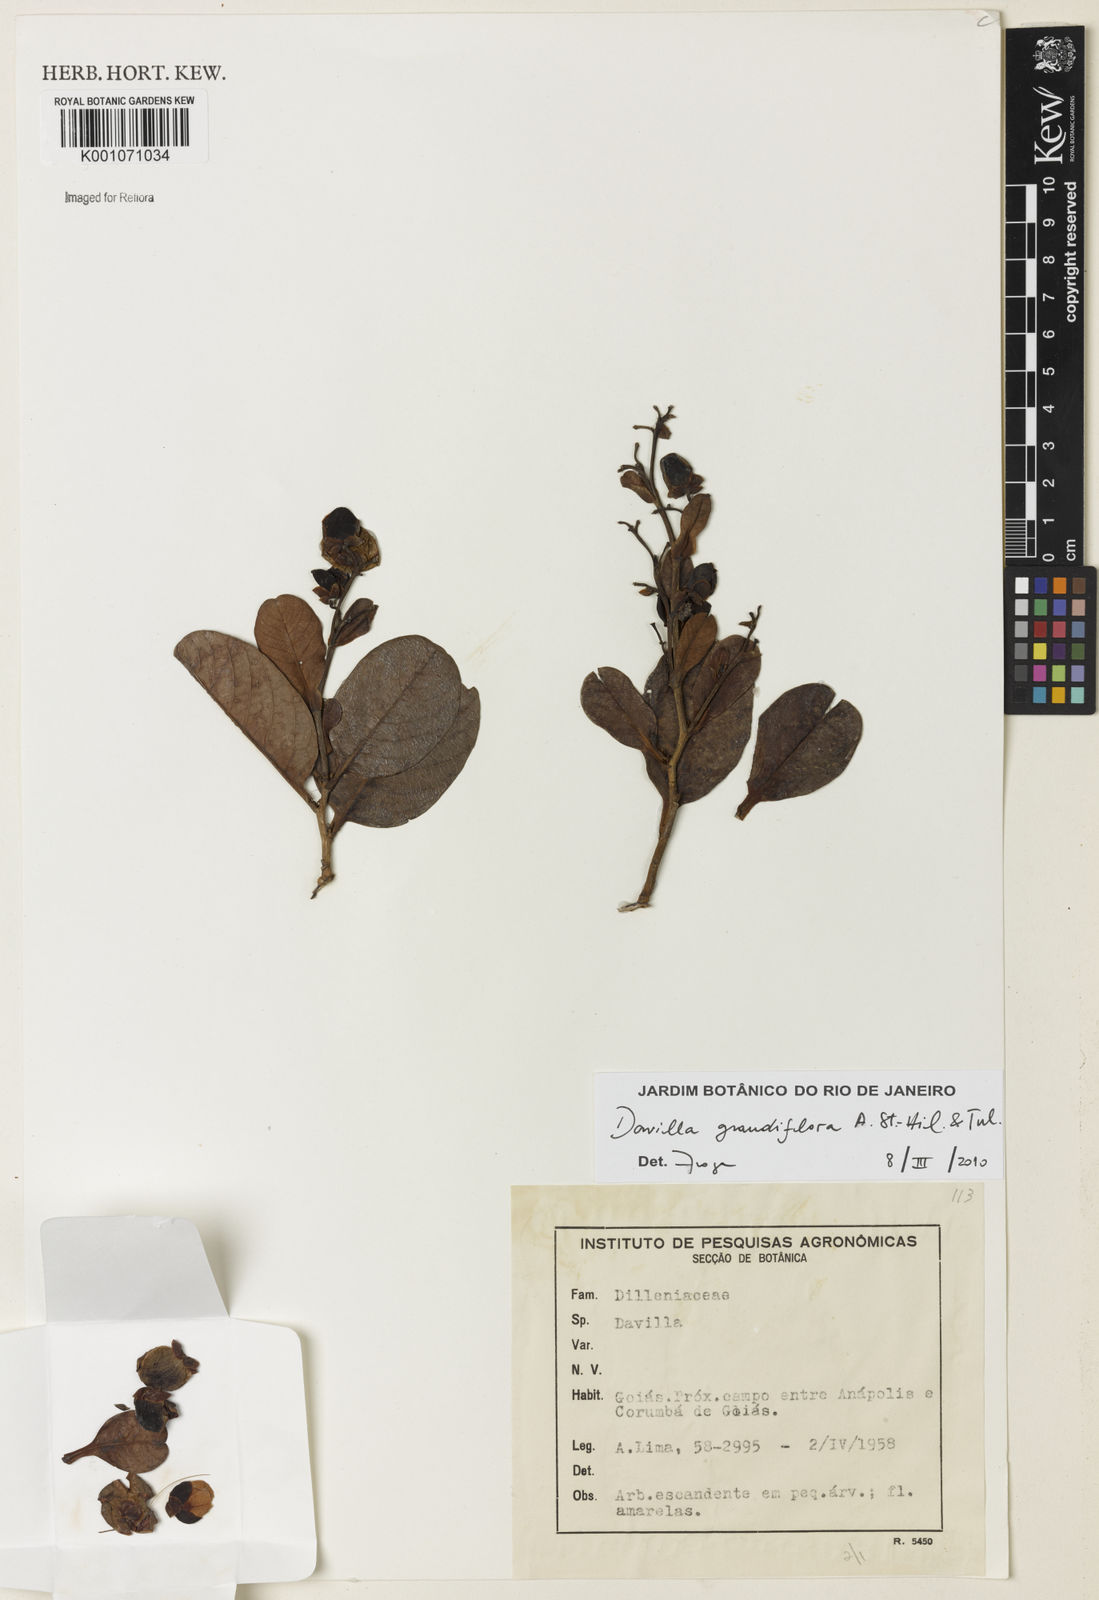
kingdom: Plantae
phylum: Tracheophyta
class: Magnoliopsida
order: Dilleniales
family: Dilleniaceae
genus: Davilla
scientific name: Davilla grandiflora
